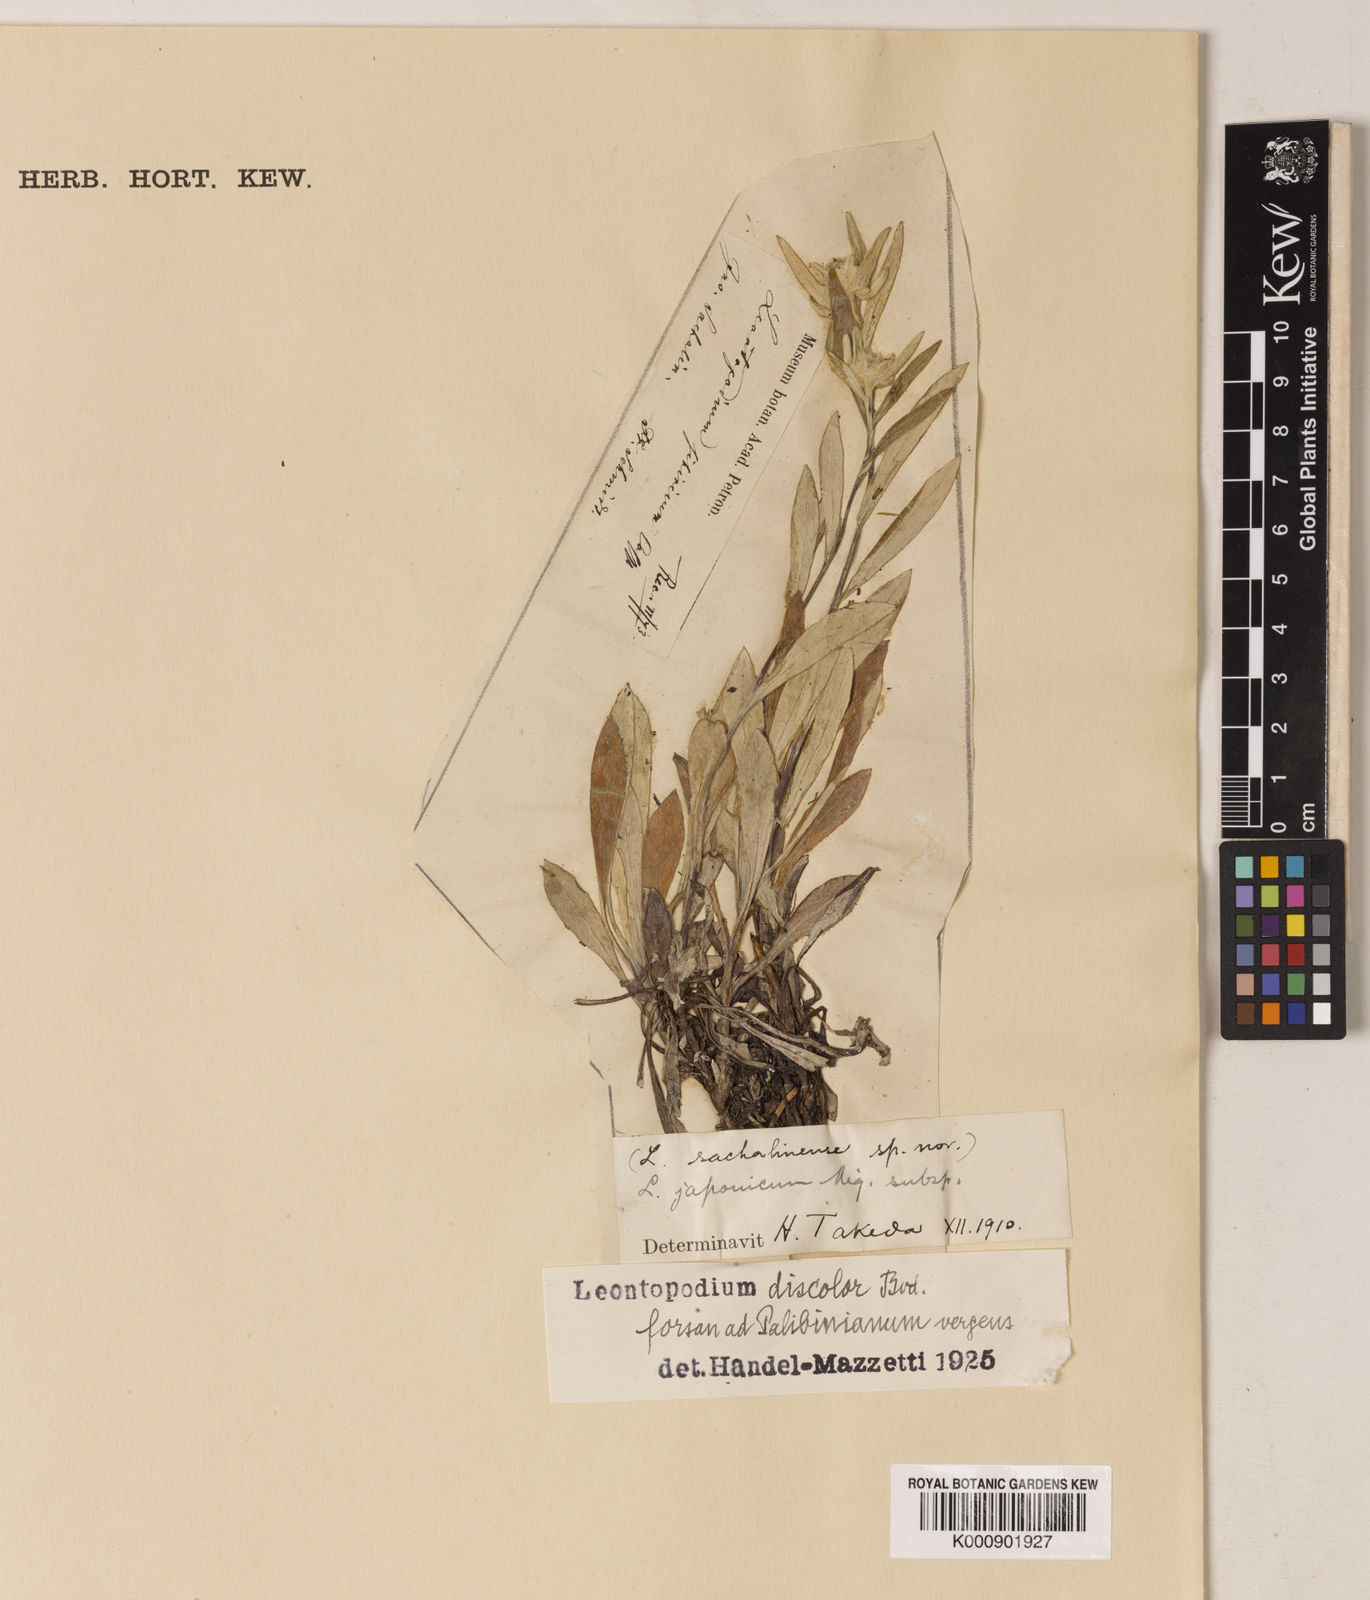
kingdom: Plantae
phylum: Tracheophyta
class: Magnoliopsida
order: Asterales
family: Asteraceae
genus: Leontopodium
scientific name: Leontopodium discolor
